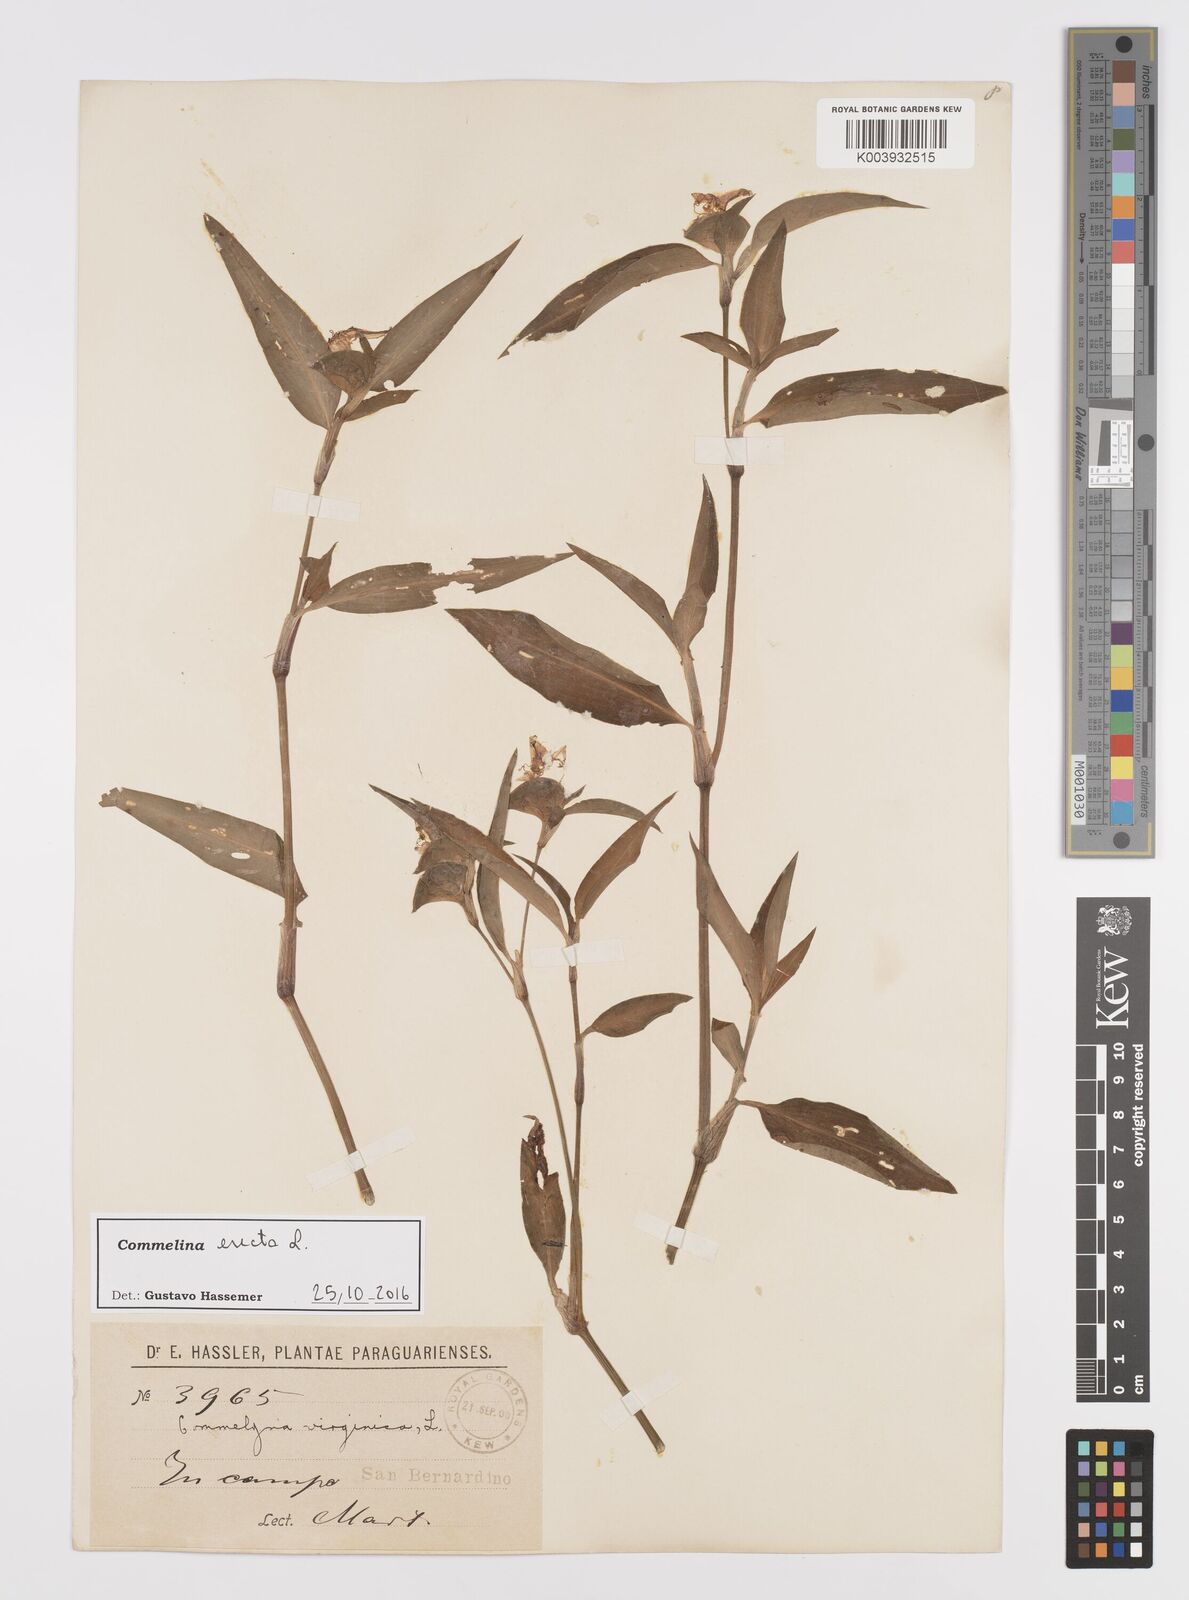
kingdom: Plantae
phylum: Tracheophyta
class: Liliopsida
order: Commelinales
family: Commelinaceae
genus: Commelina
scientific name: Commelina erecta
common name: Blousel blommetjie
